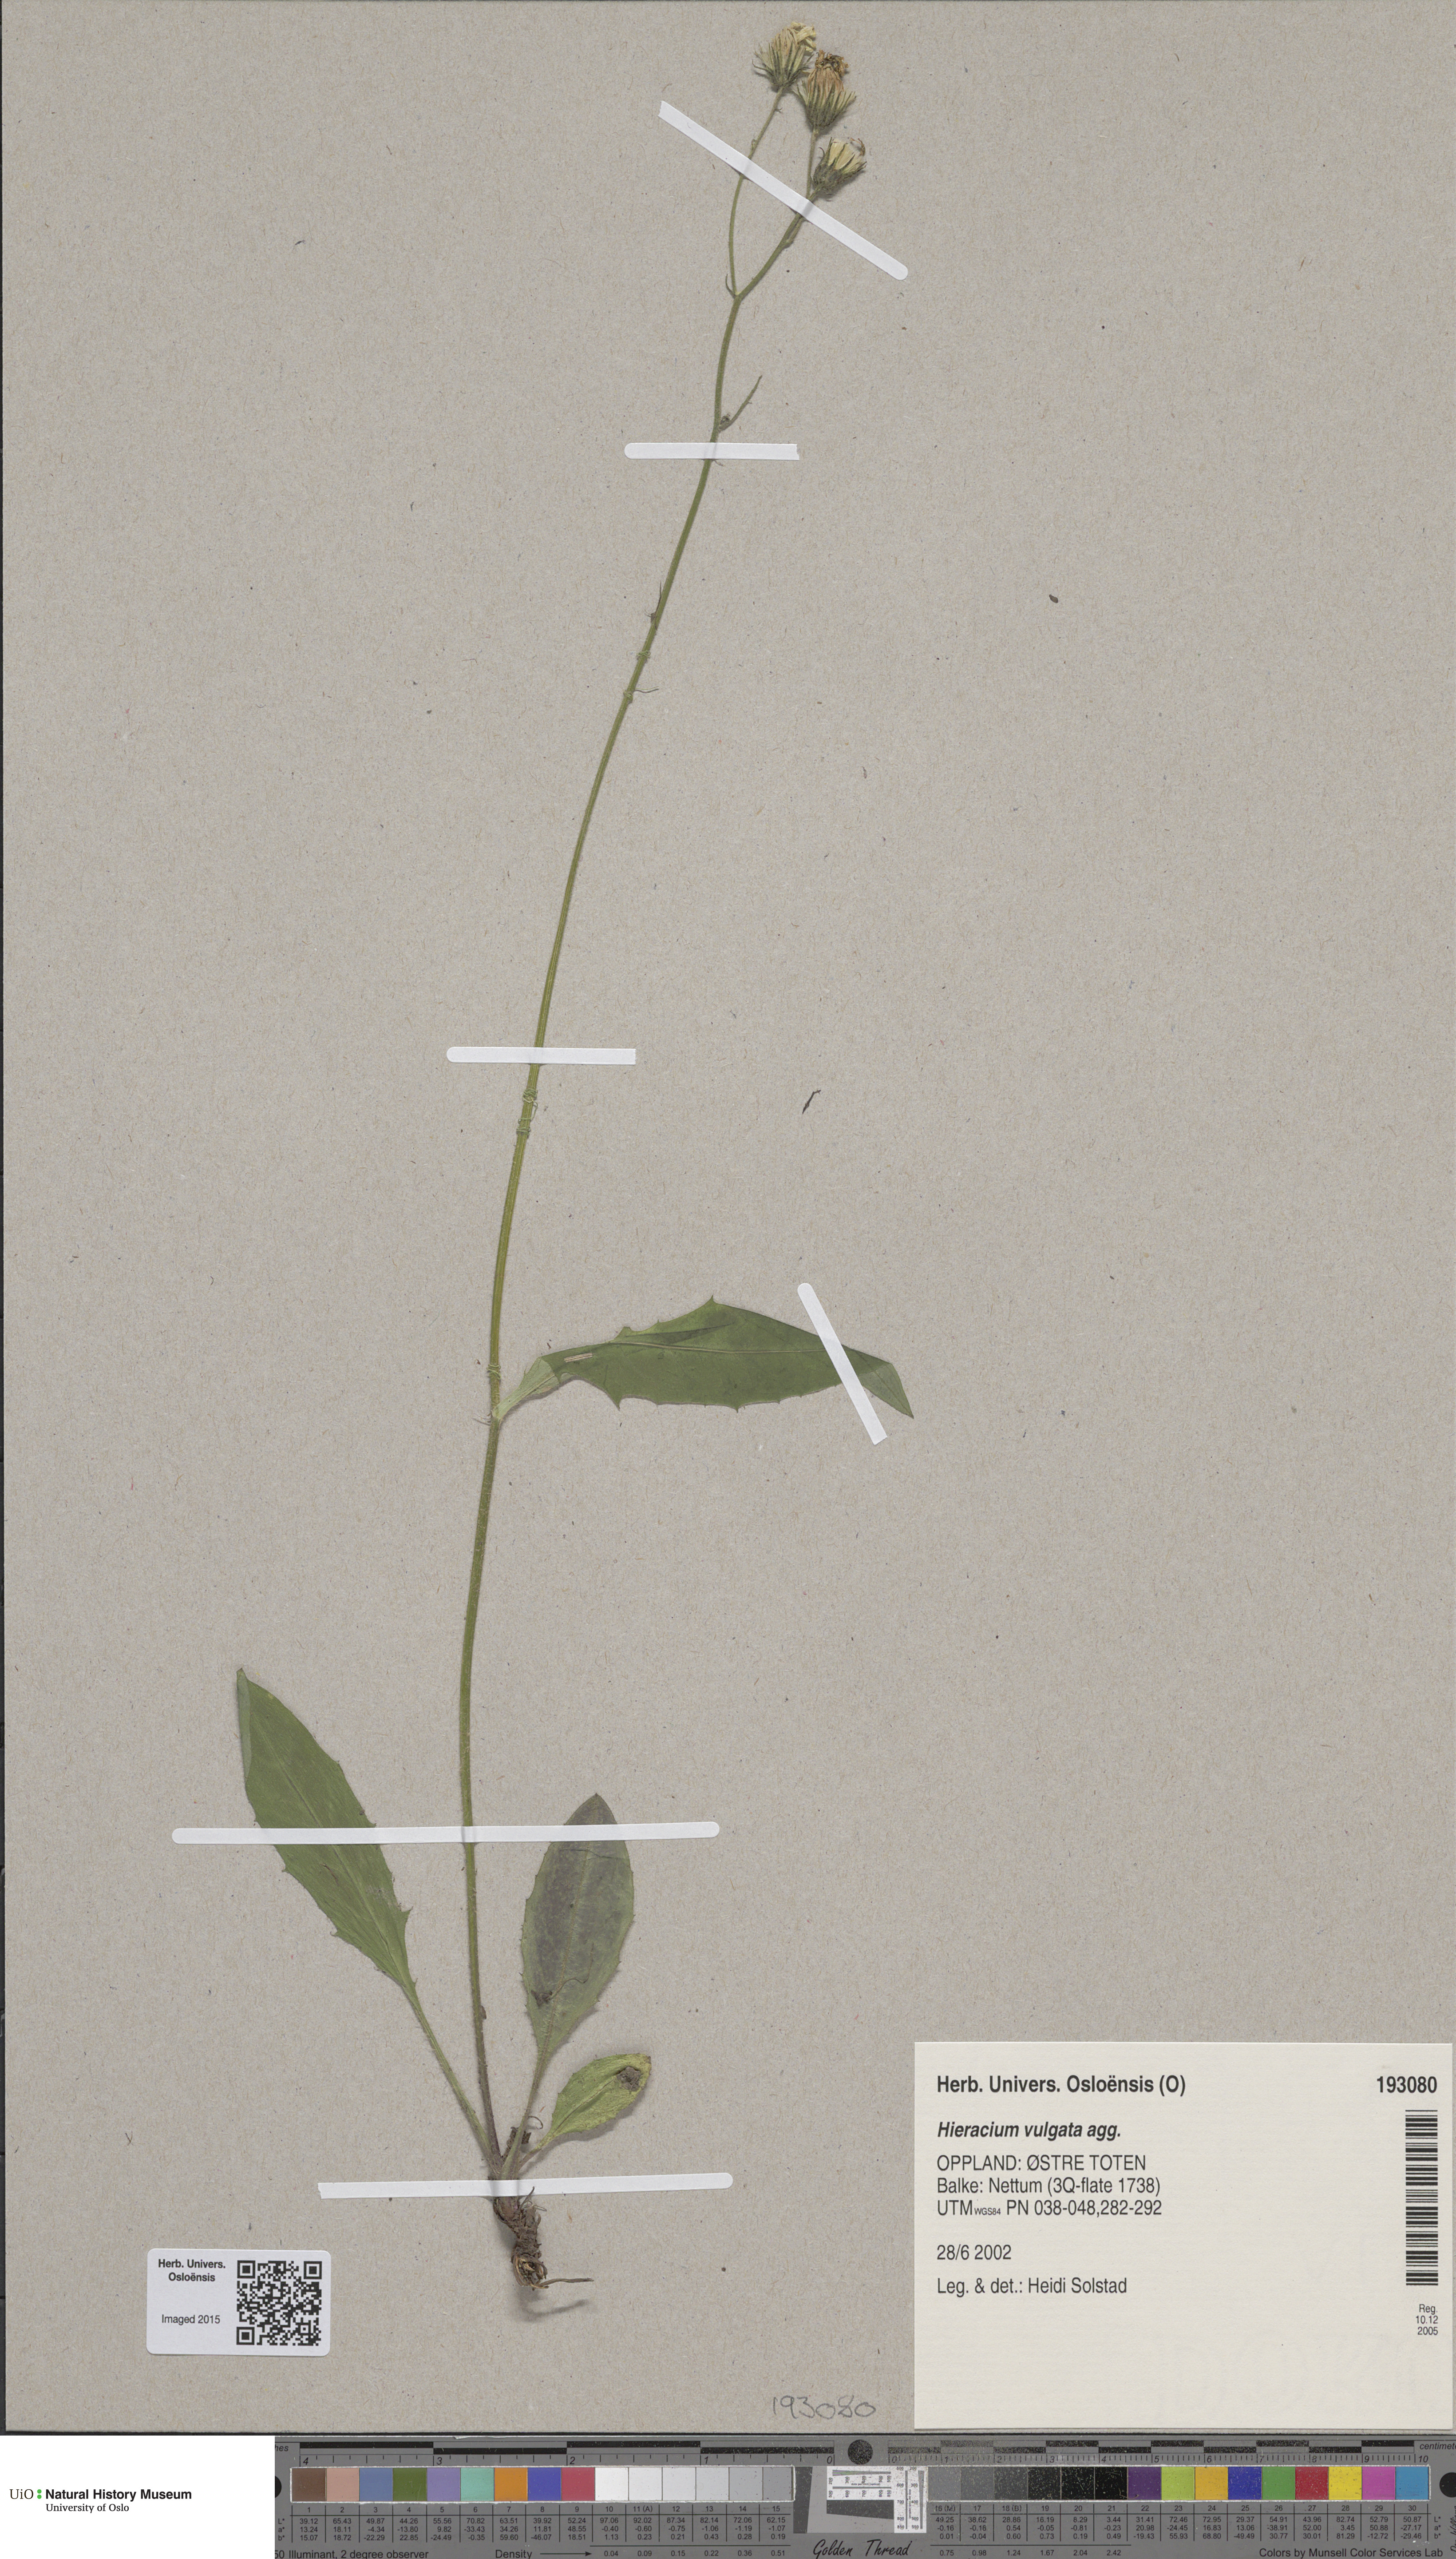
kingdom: Plantae
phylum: Tracheophyta
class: Magnoliopsida
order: Asterales
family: Asteraceae
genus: Hieracium
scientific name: Hieracium vulgatum
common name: Common hawkweed
